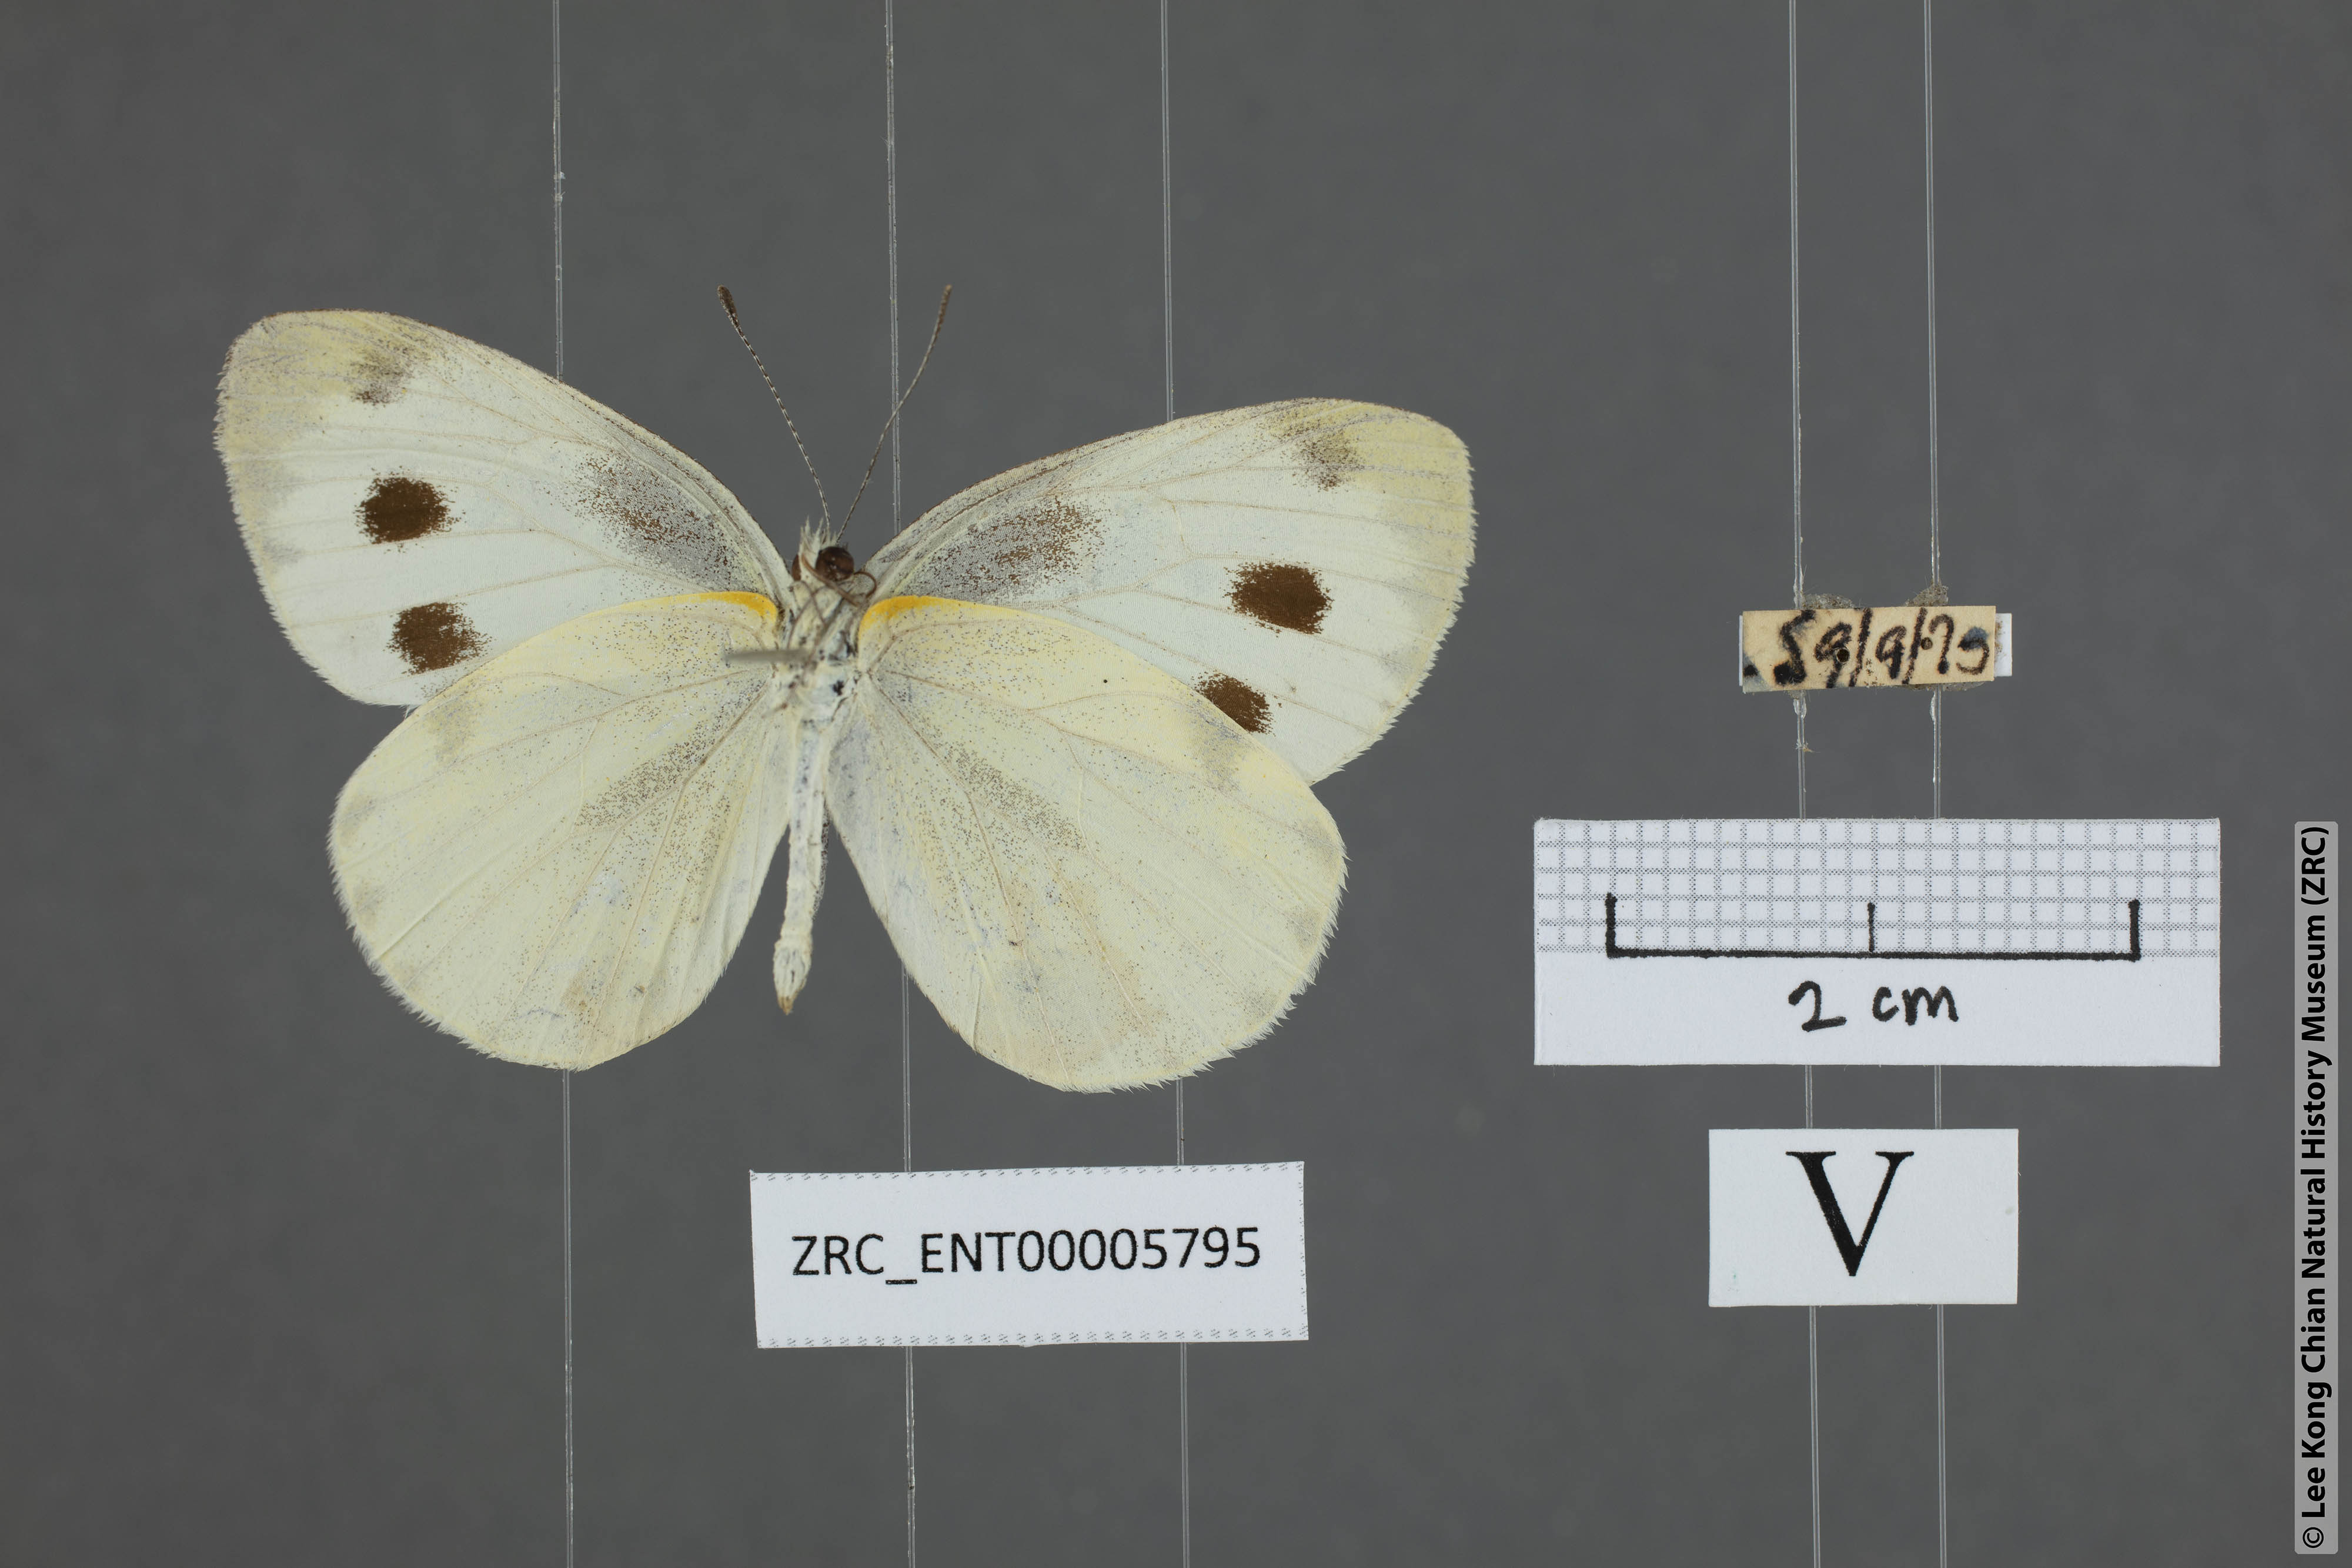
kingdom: Animalia
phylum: Arthropoda
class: Insecta
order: Lepidoptera
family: Pieridae
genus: Pieris
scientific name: Pieris canidia
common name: Indian cabbage white
